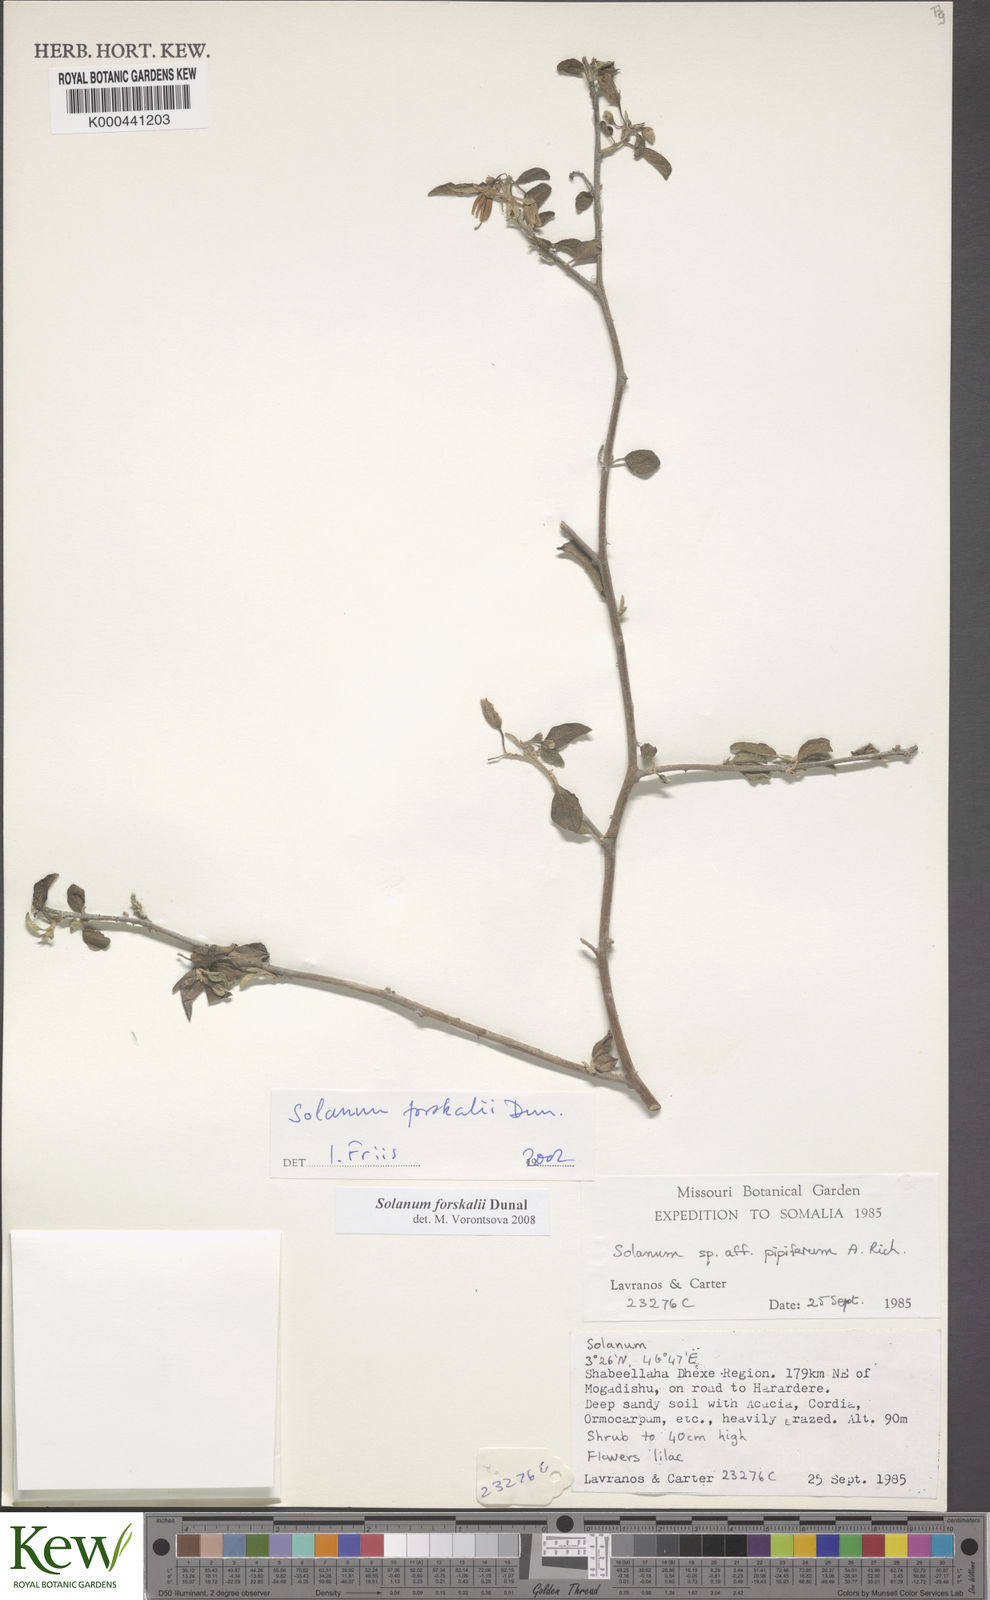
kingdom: Plantae
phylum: Tracheophyta
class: Magnoliopsida
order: Solanales
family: Solanaceae
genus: Solanum
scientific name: Solanum
